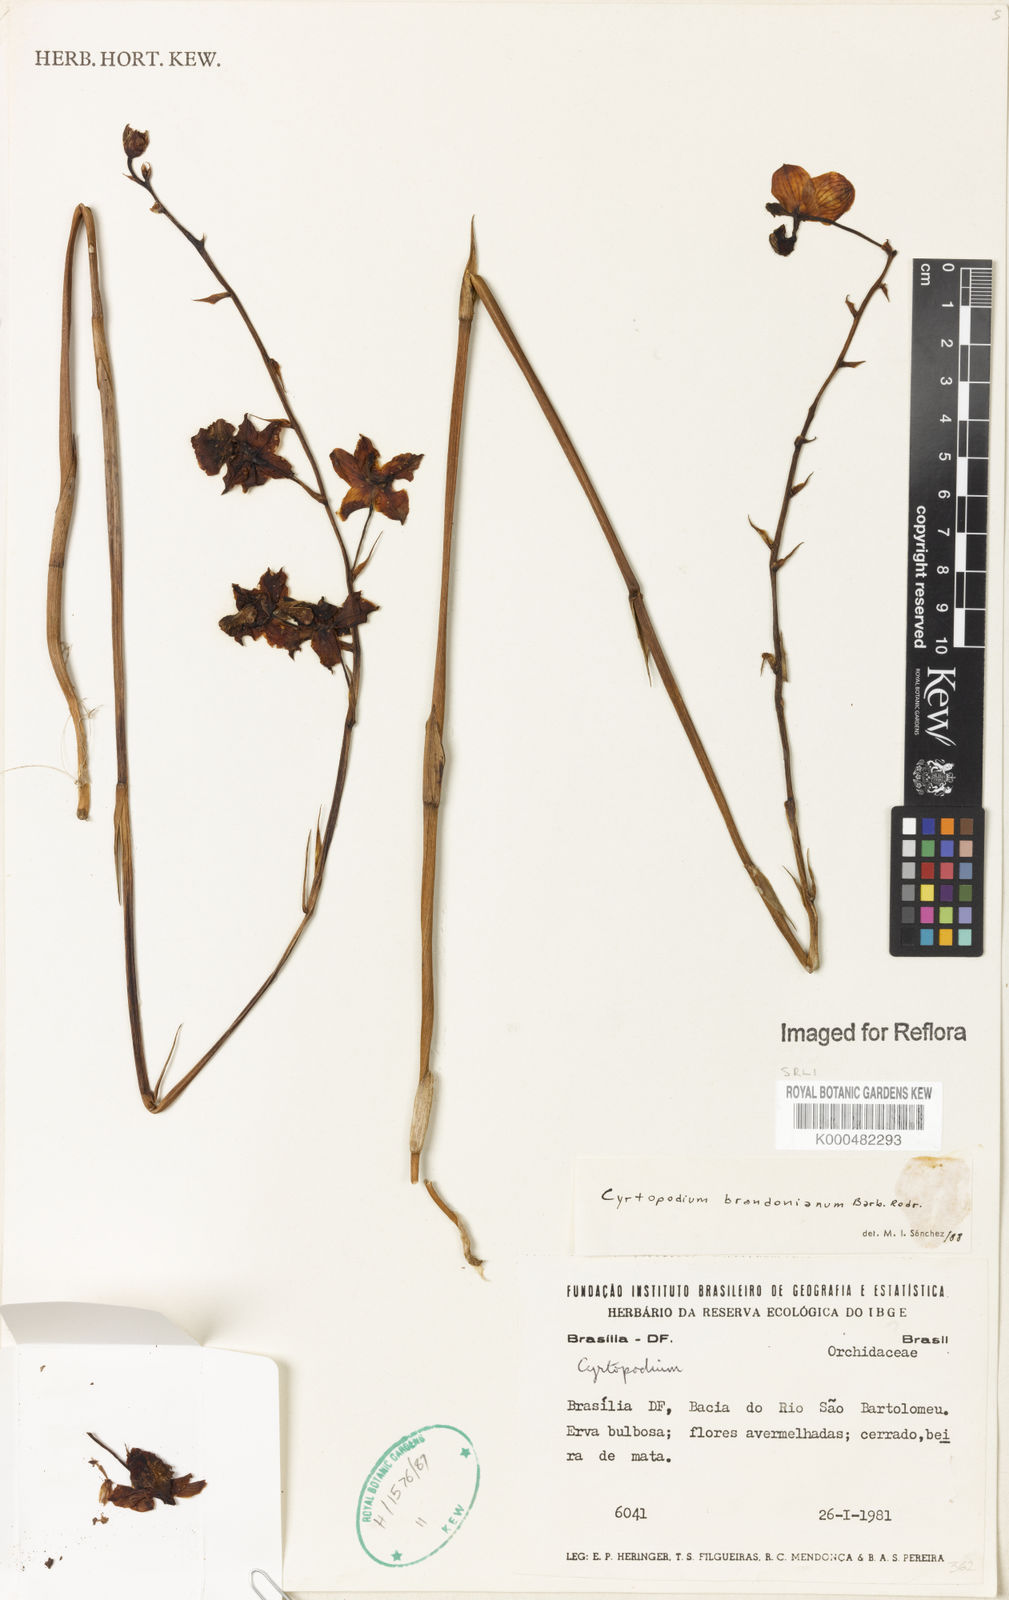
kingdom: Plantae
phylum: Tracheophyta
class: Liliopsida
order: Asparagales
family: Orchidaceae
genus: Cyrtopodium
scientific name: Cyrtopodium brandonianum
